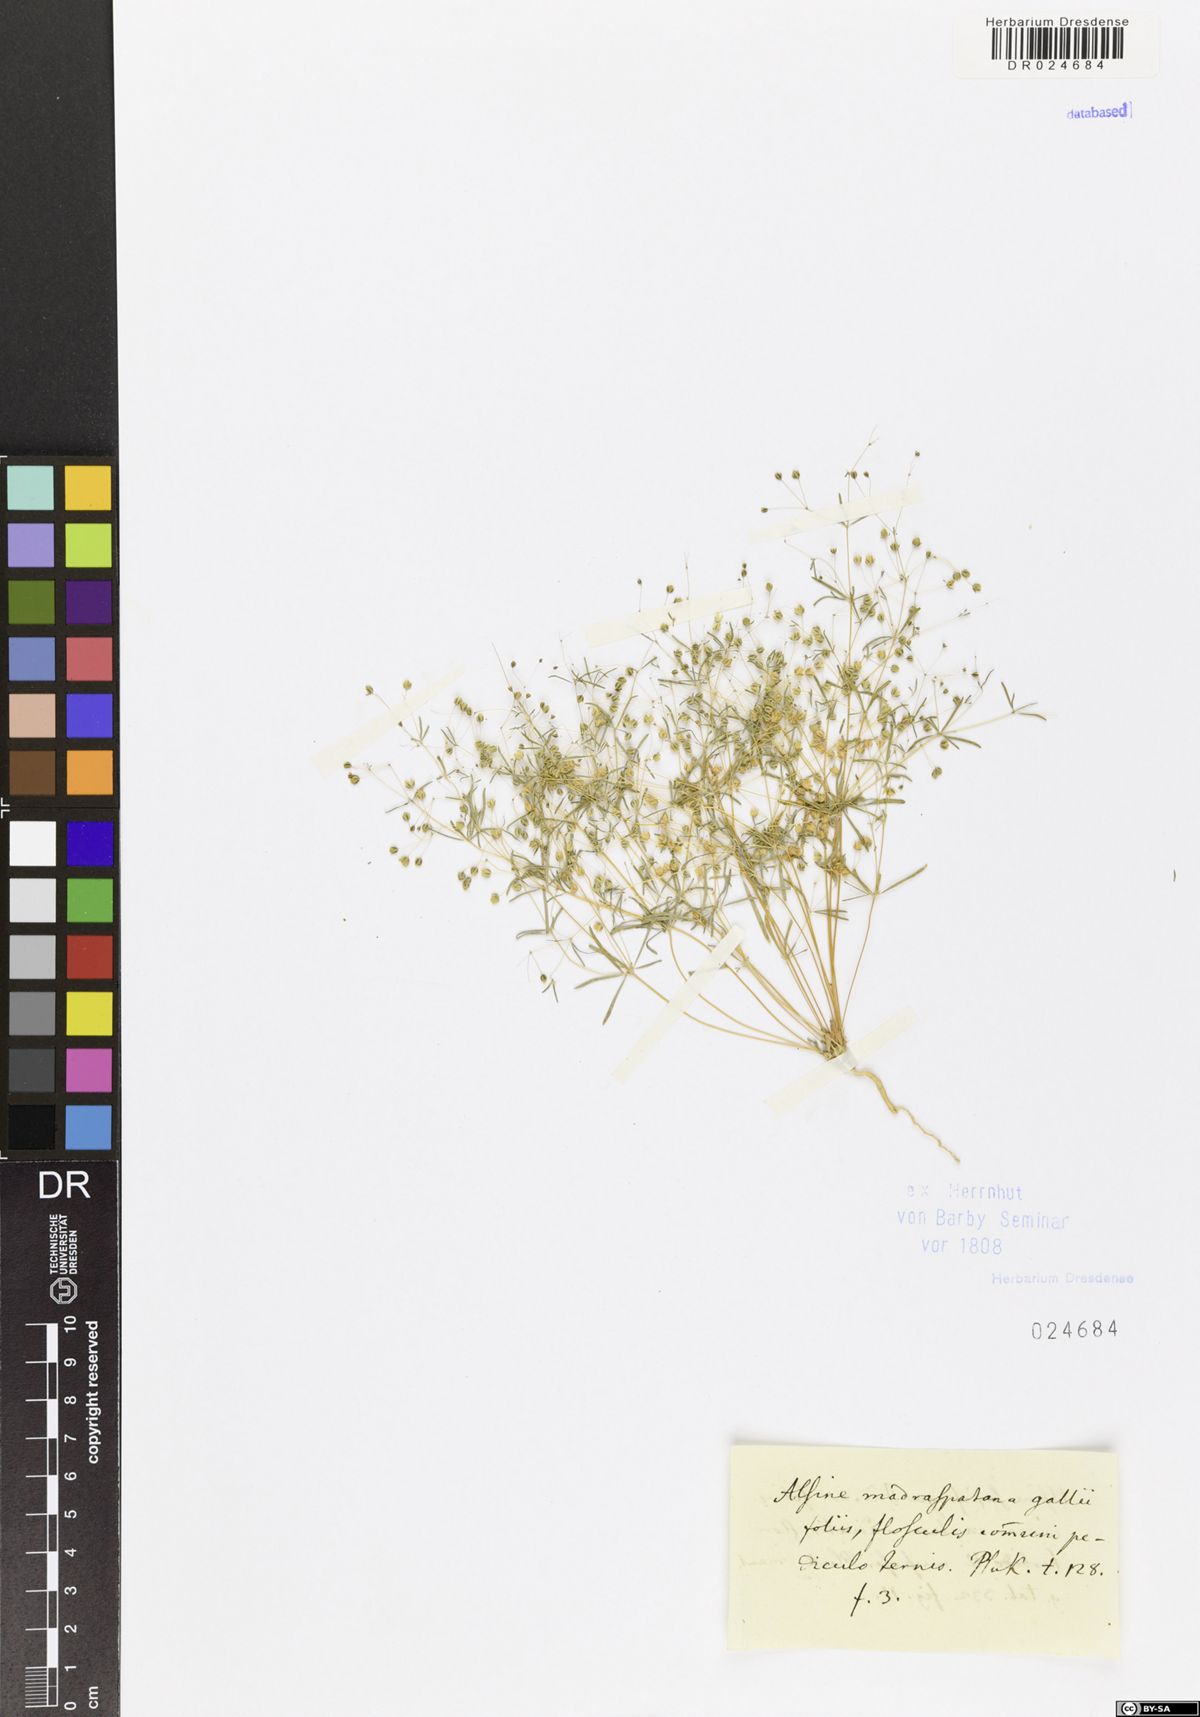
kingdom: Plantae
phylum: Tracheophyta
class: Magnoliopsida
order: Caryophyllales
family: Molluginaceae
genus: Hypertelis
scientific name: Hypertelis cerviana
